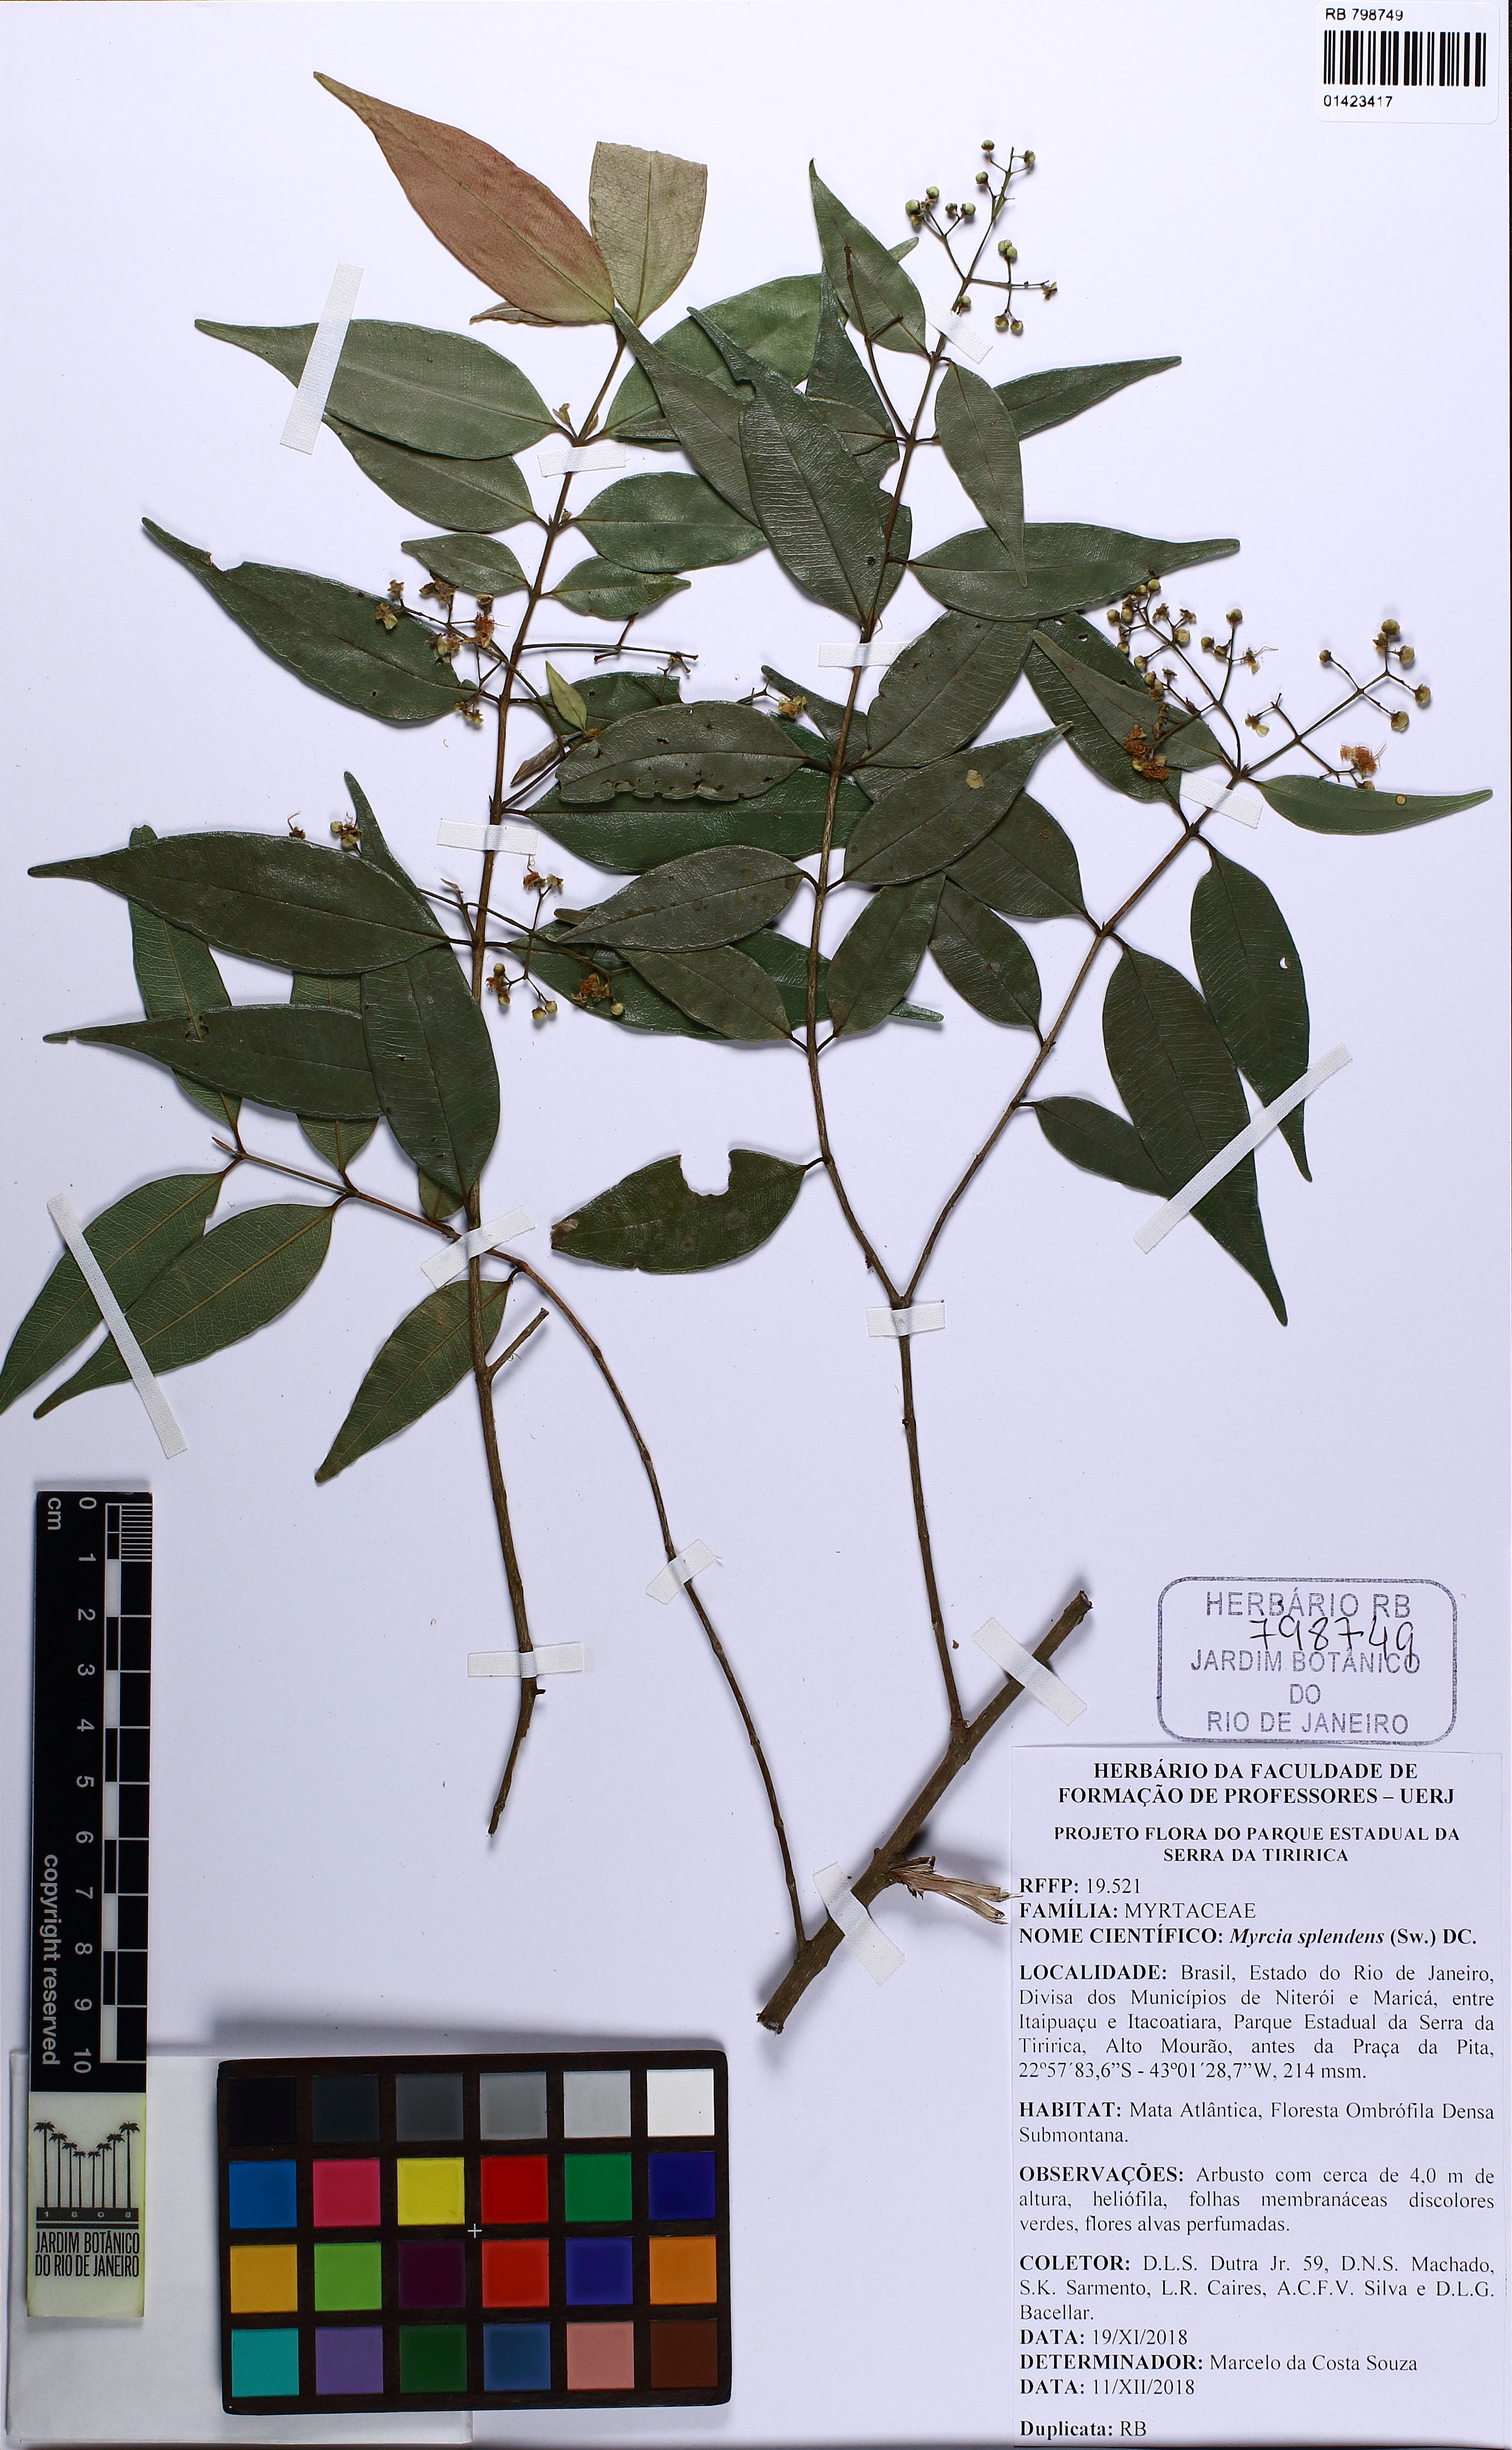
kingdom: Plantae
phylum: Tracheophyta
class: Magnoliopsida
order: Myrtales
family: Myrtaceae
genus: Myrcia
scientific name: Myrcia splendens
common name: Surinam cherry
